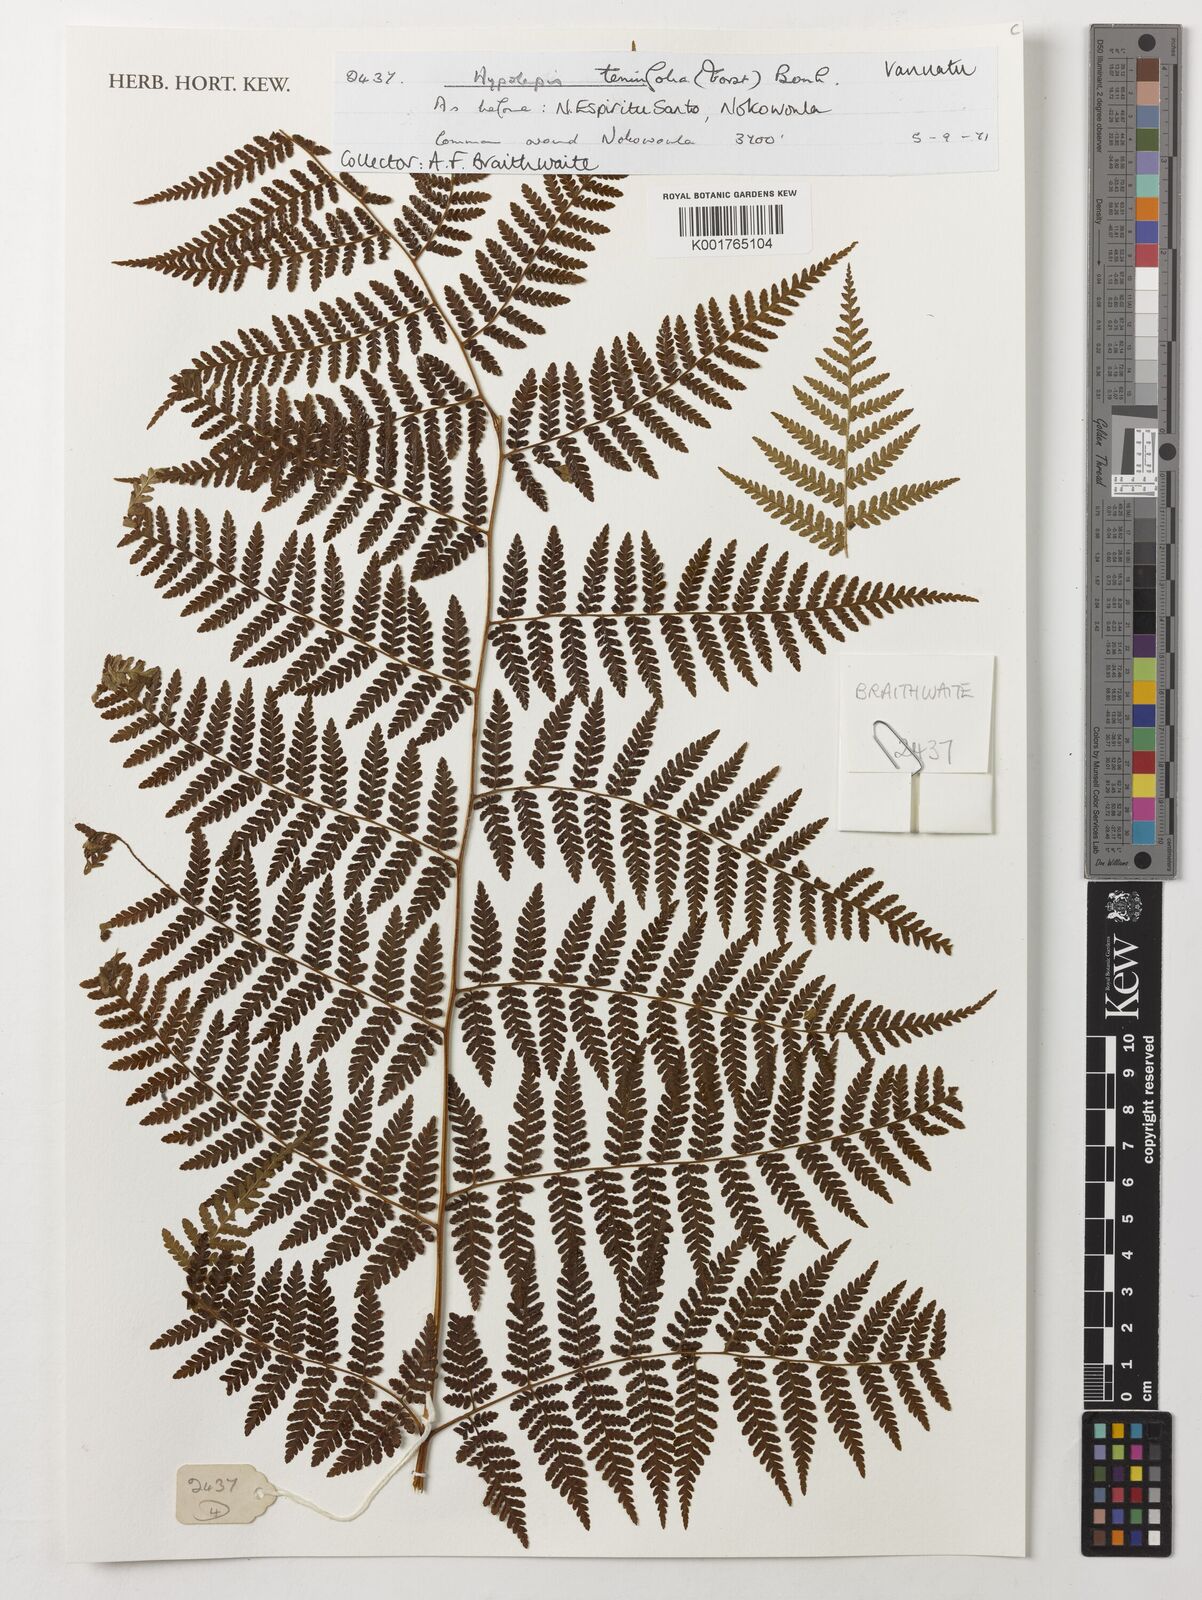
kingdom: Plantae
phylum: Tracheophyta
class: Polypodiopsida
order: Polypodiales
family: Dennstaedtiaceae
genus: Hypolepis
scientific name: Hypolepis tenuifolia
